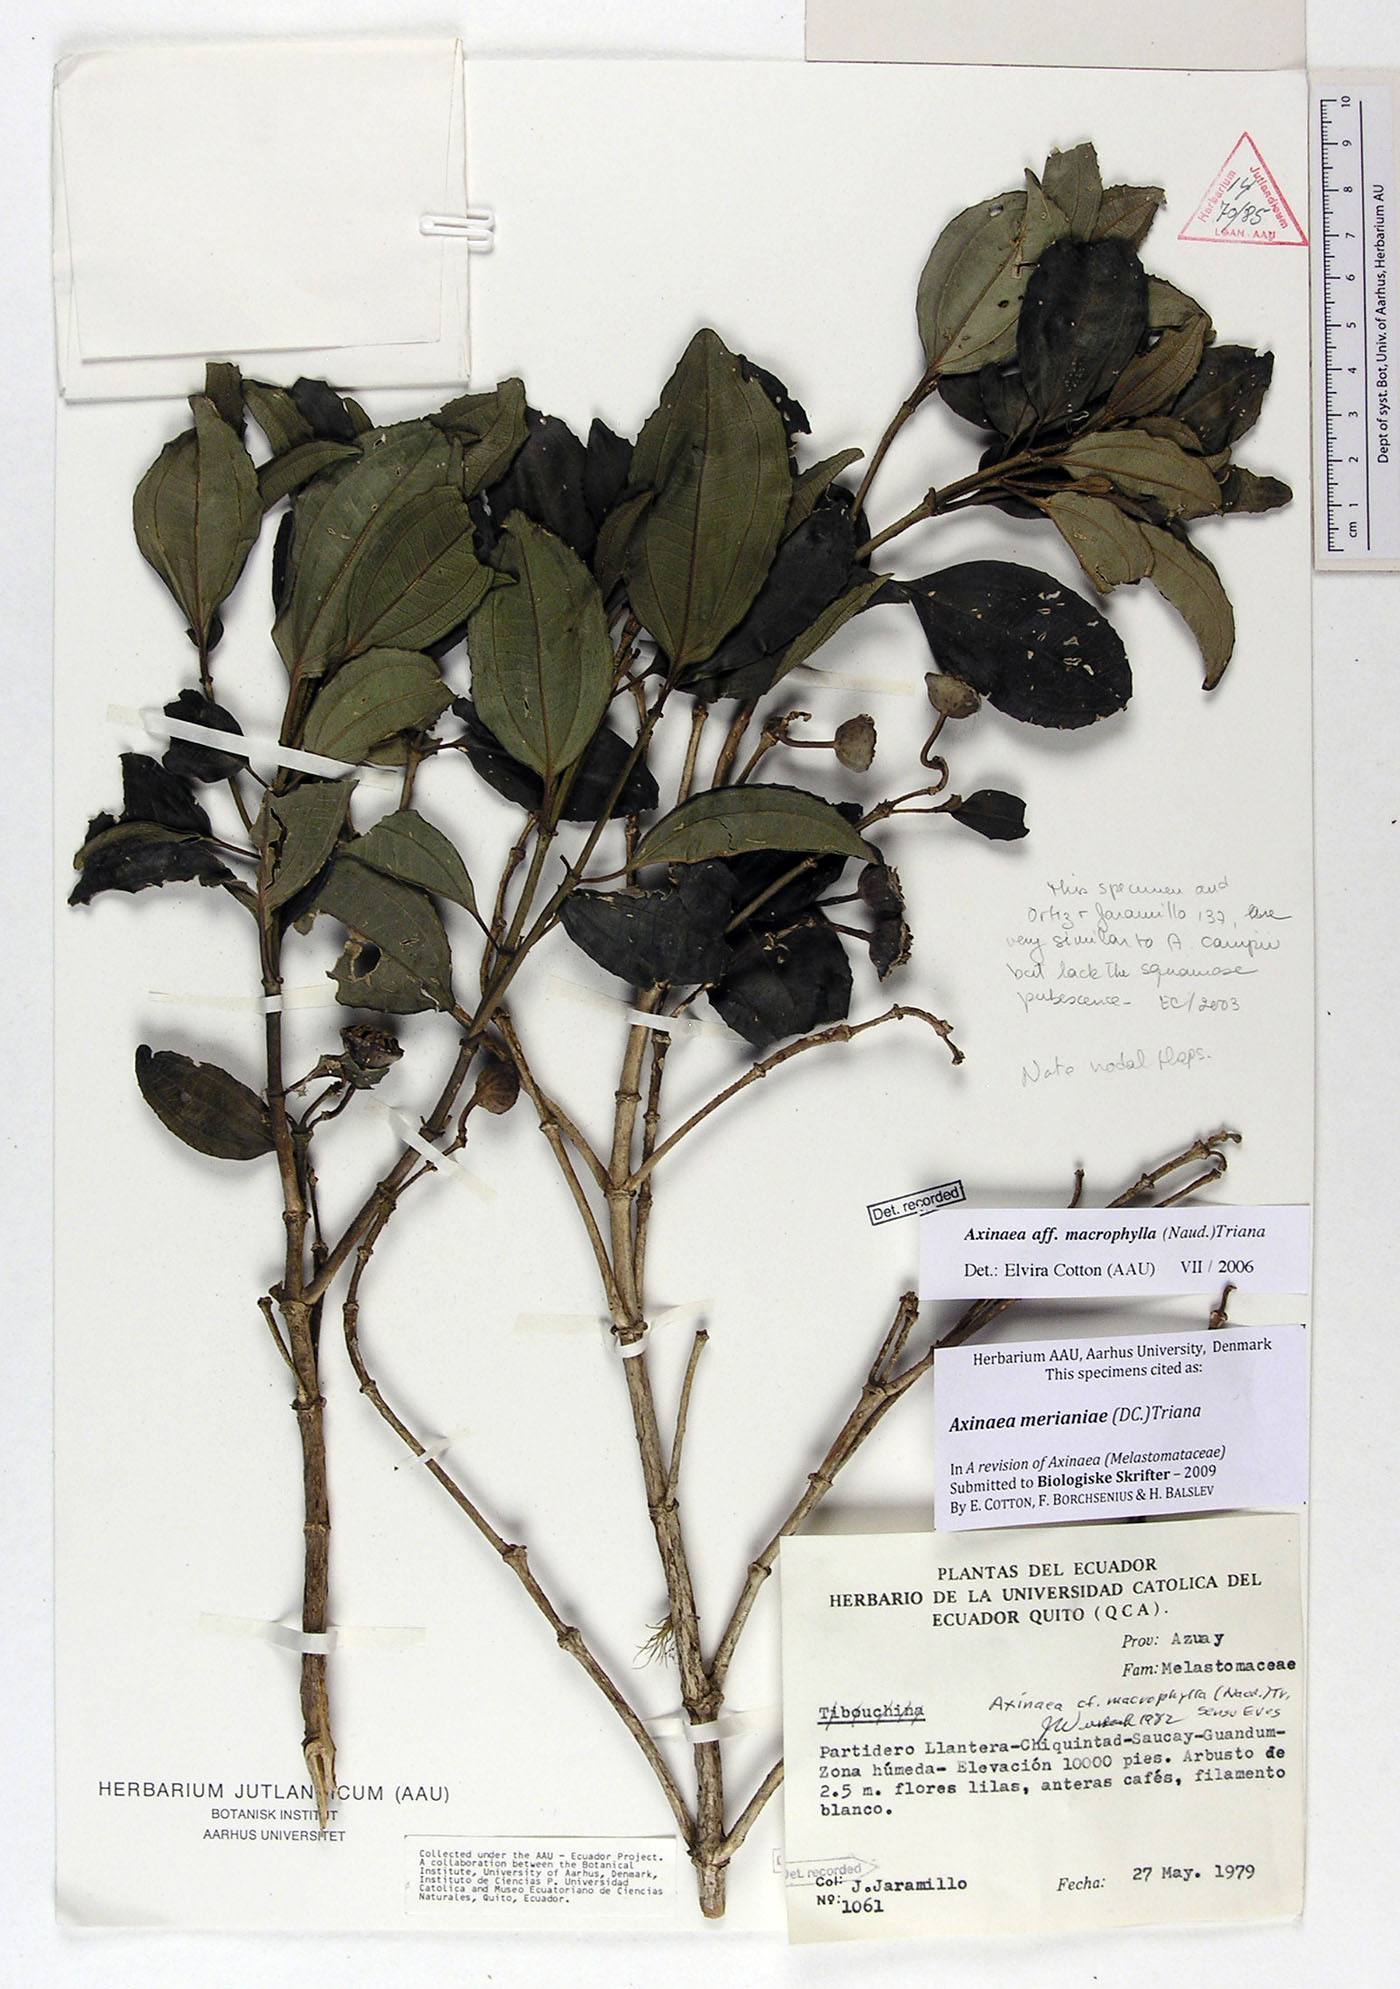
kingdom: Plantae
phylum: Tracheophyta
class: Magnoliopsida
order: Myrtales
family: Melastomataceae
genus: Axinaea
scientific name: Axinaea merianiae
